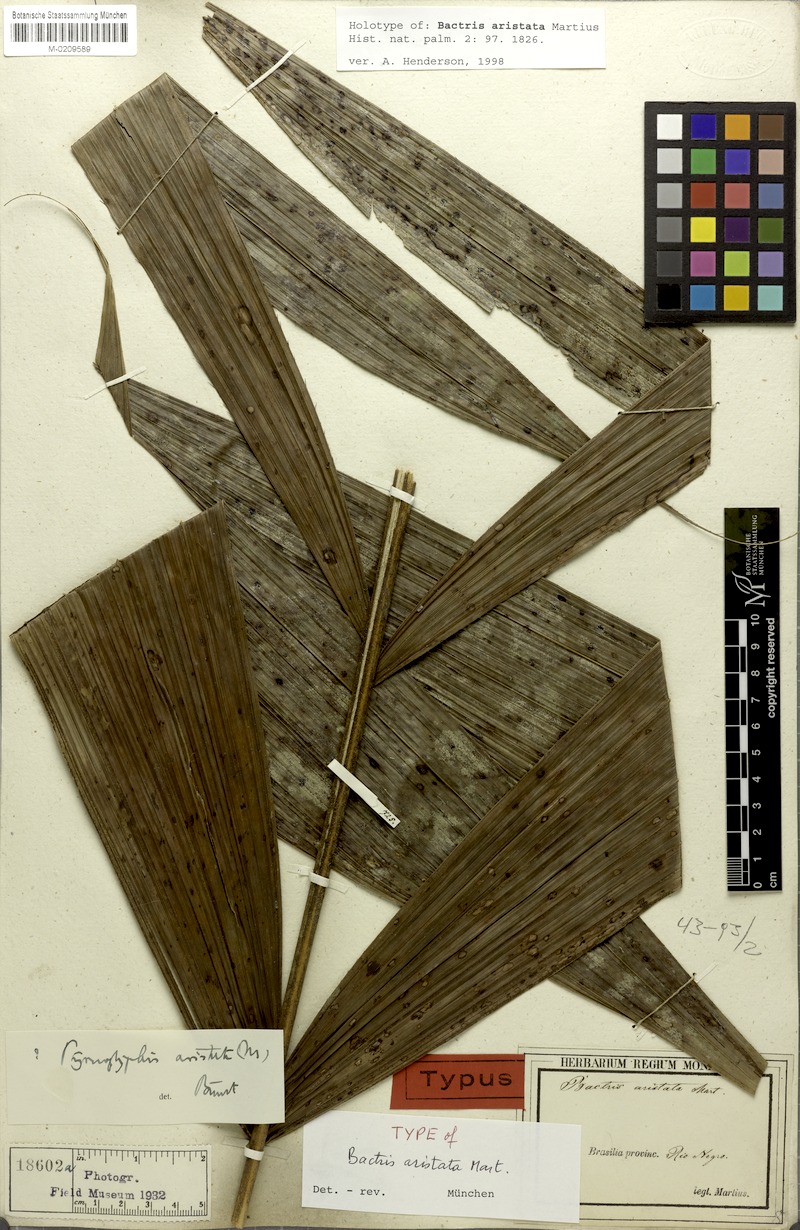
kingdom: Plantae
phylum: Tracheophyta
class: Liliopsida
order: Arecales
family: Arecaceae
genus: Bactris
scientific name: Bactris fissifrons
